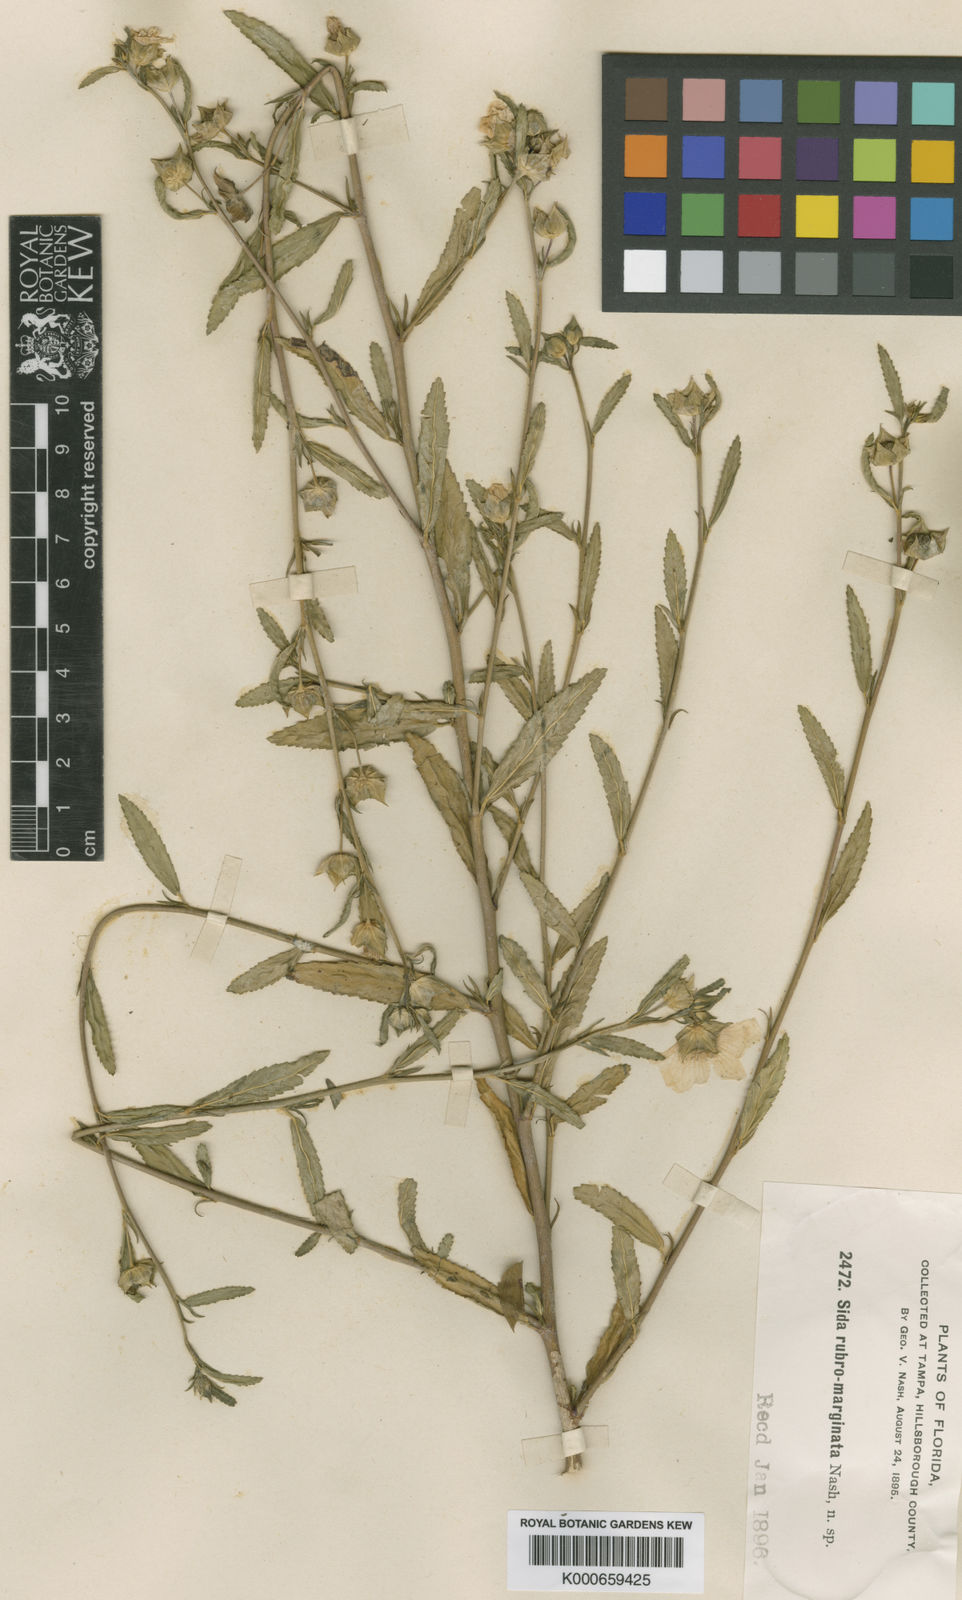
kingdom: Plantae
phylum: Tracheophyta
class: Magnoliopsida
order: Malvales
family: Malvaceae
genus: Sida
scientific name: Sida rubromarginata
